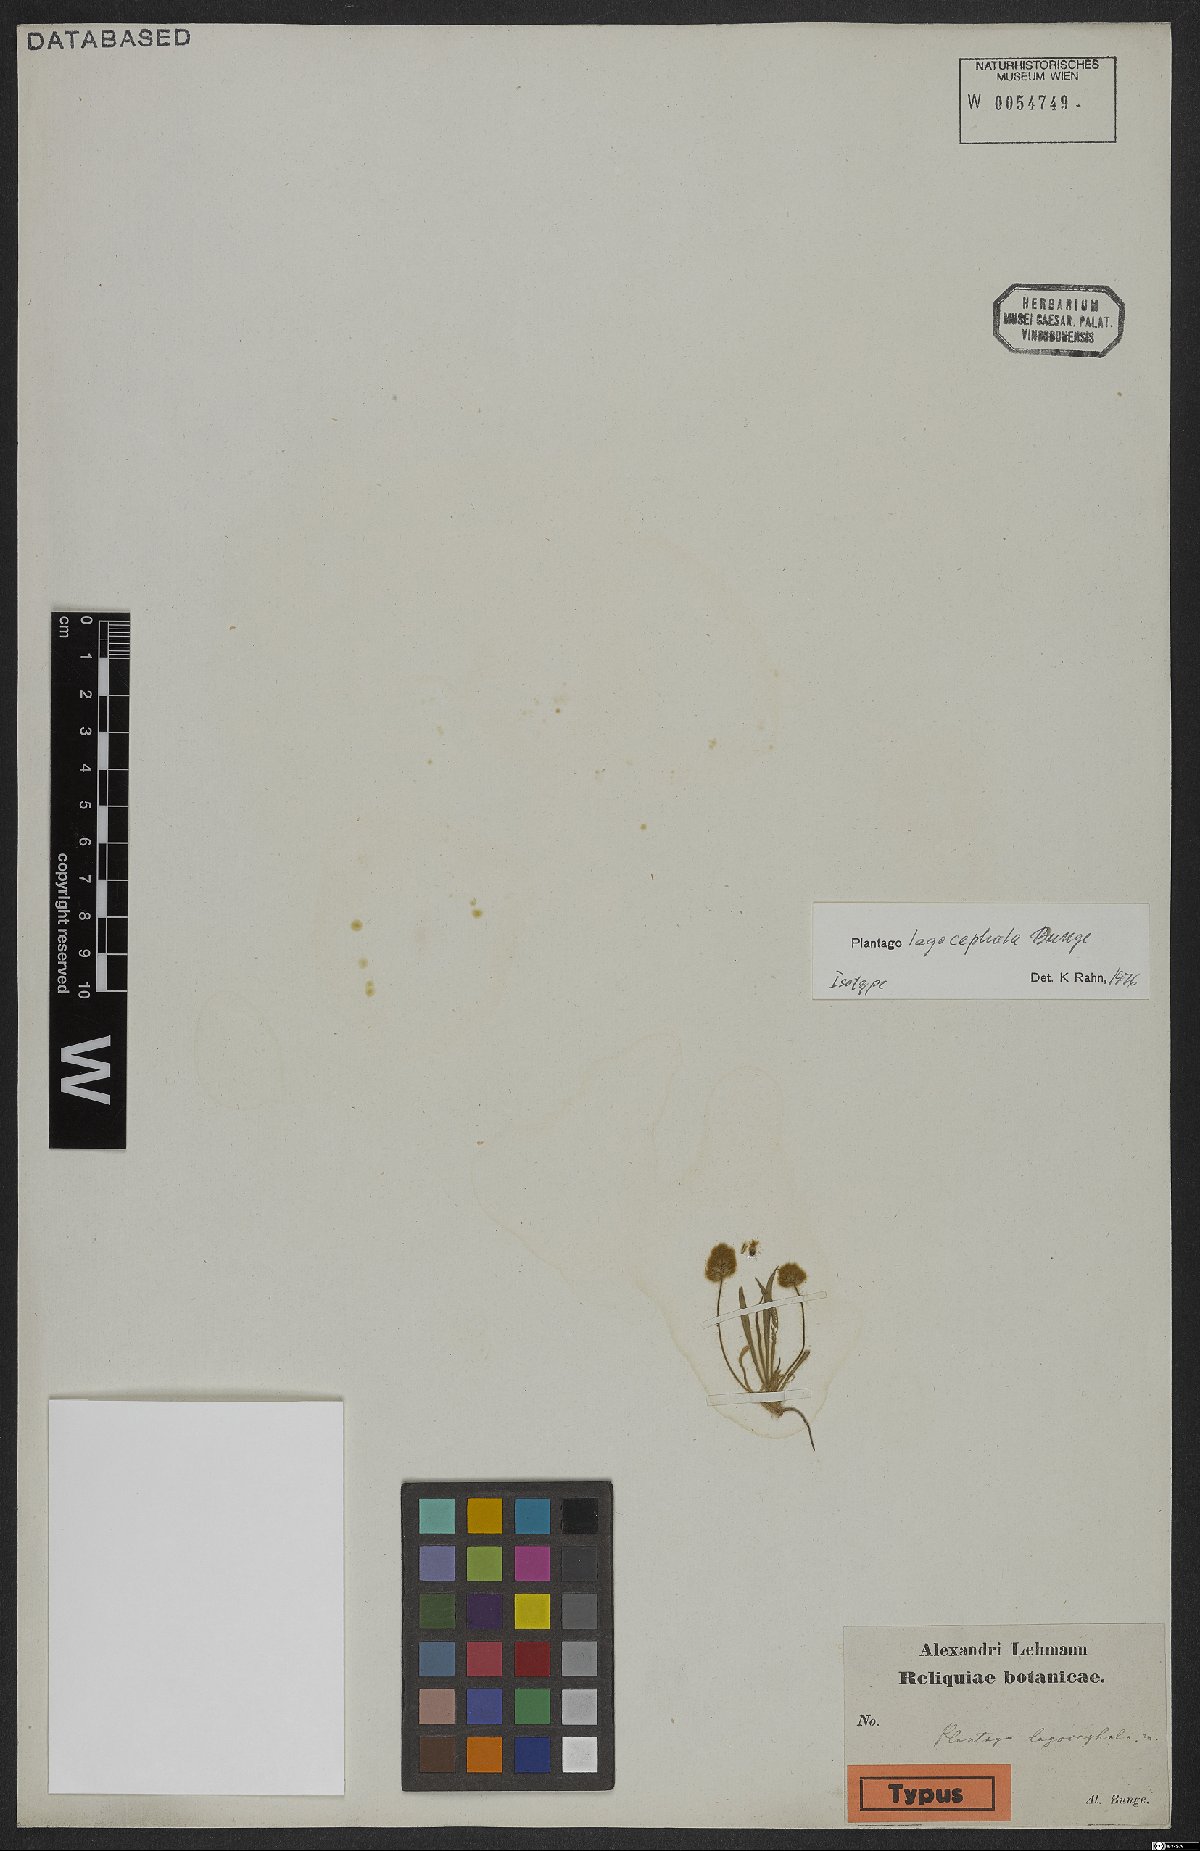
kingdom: Plantae
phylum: Tracheophyta
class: Magnoliopsida
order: Lamiales
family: Plantaginaceae
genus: Plantago
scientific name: Plantago lagocephala
